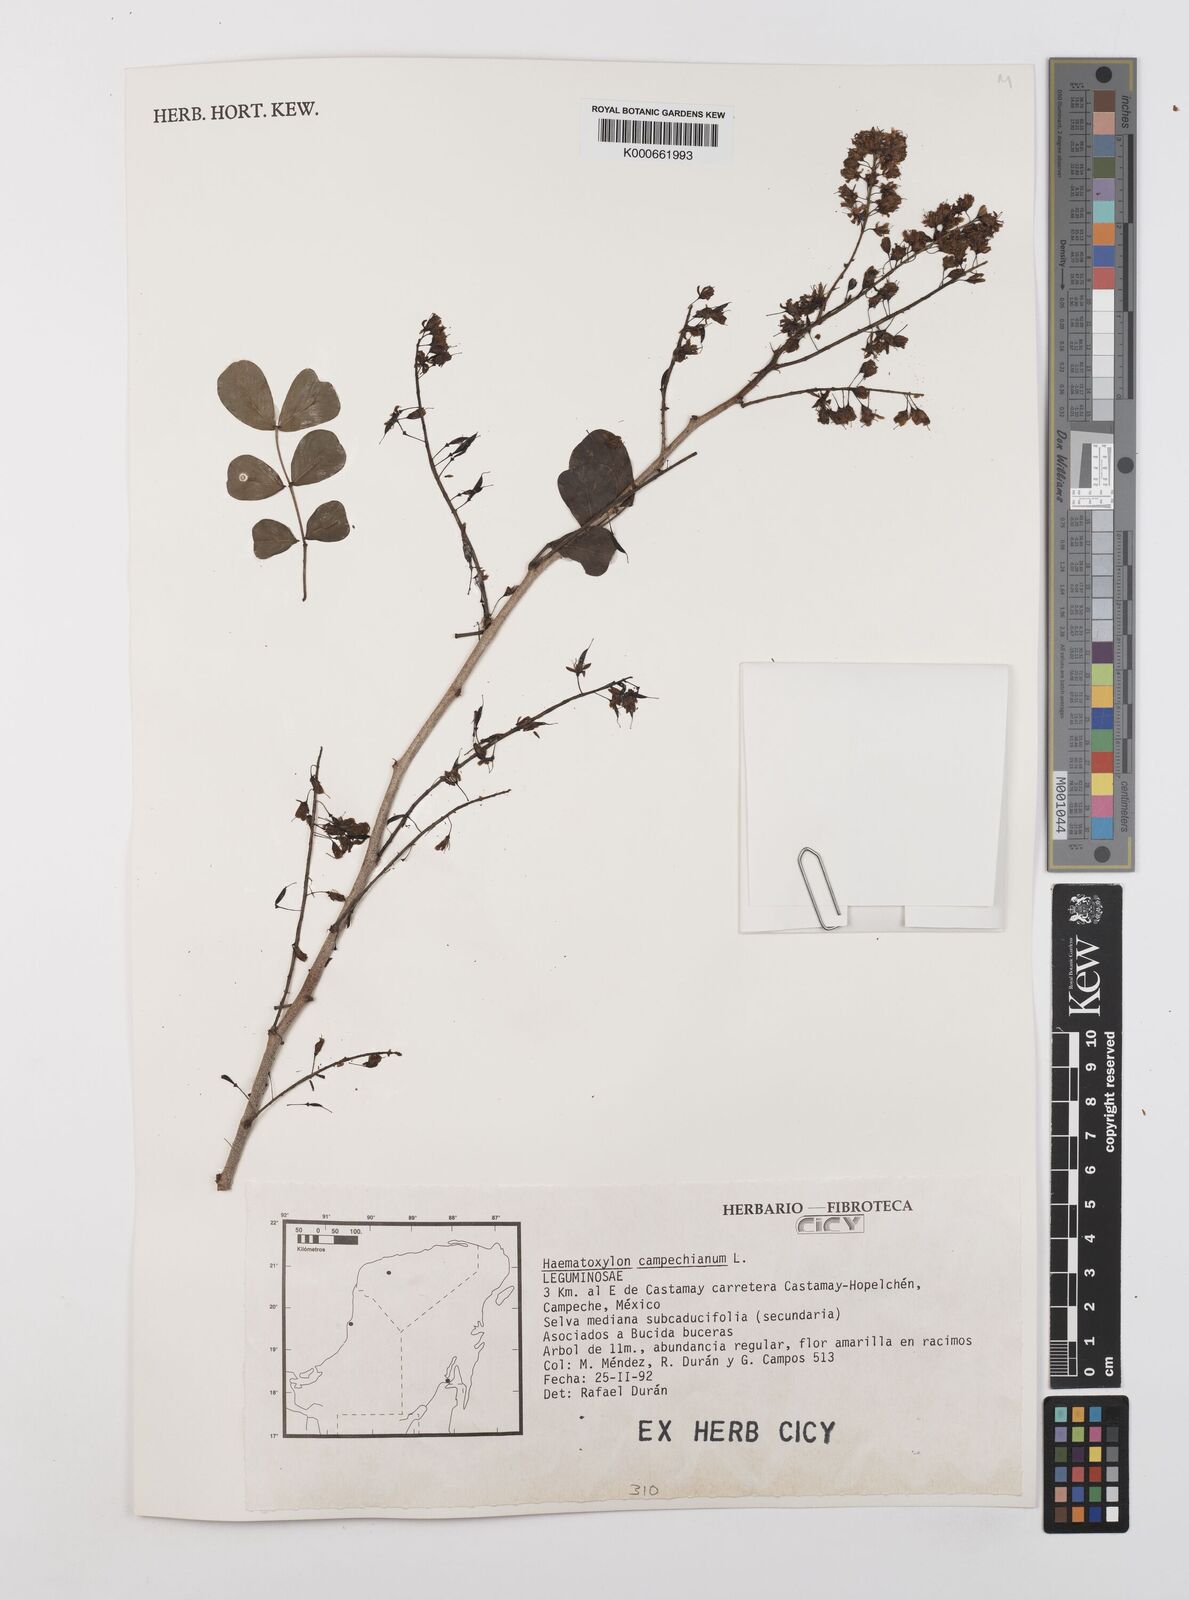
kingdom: Plantae
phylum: Tracheophyta
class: Magnoliopsida
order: Fabales
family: Fabaceae
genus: Haematoxylum
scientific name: Haematoxylum
